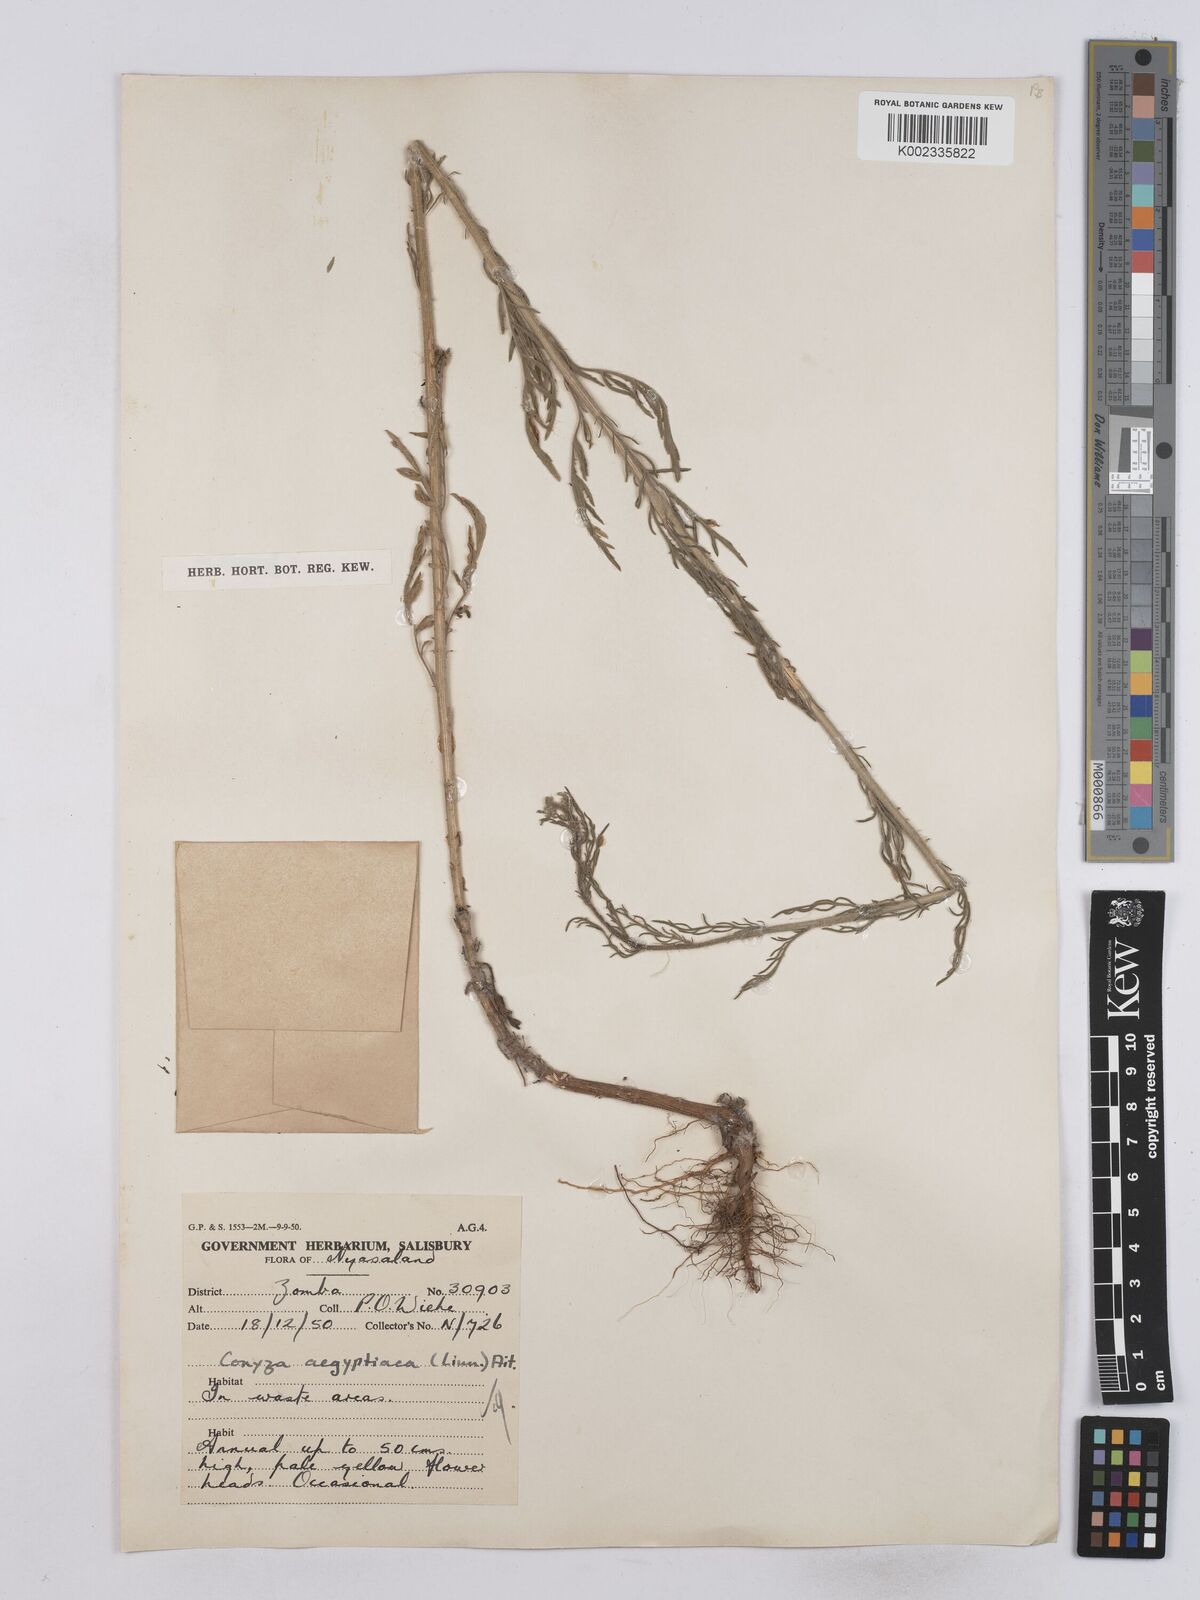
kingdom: Plantae
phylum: Tracheophyta
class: Magnoliopsida
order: Asterales
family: Asteraceae
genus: Nidorella
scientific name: Nidorella aegyptiaca
